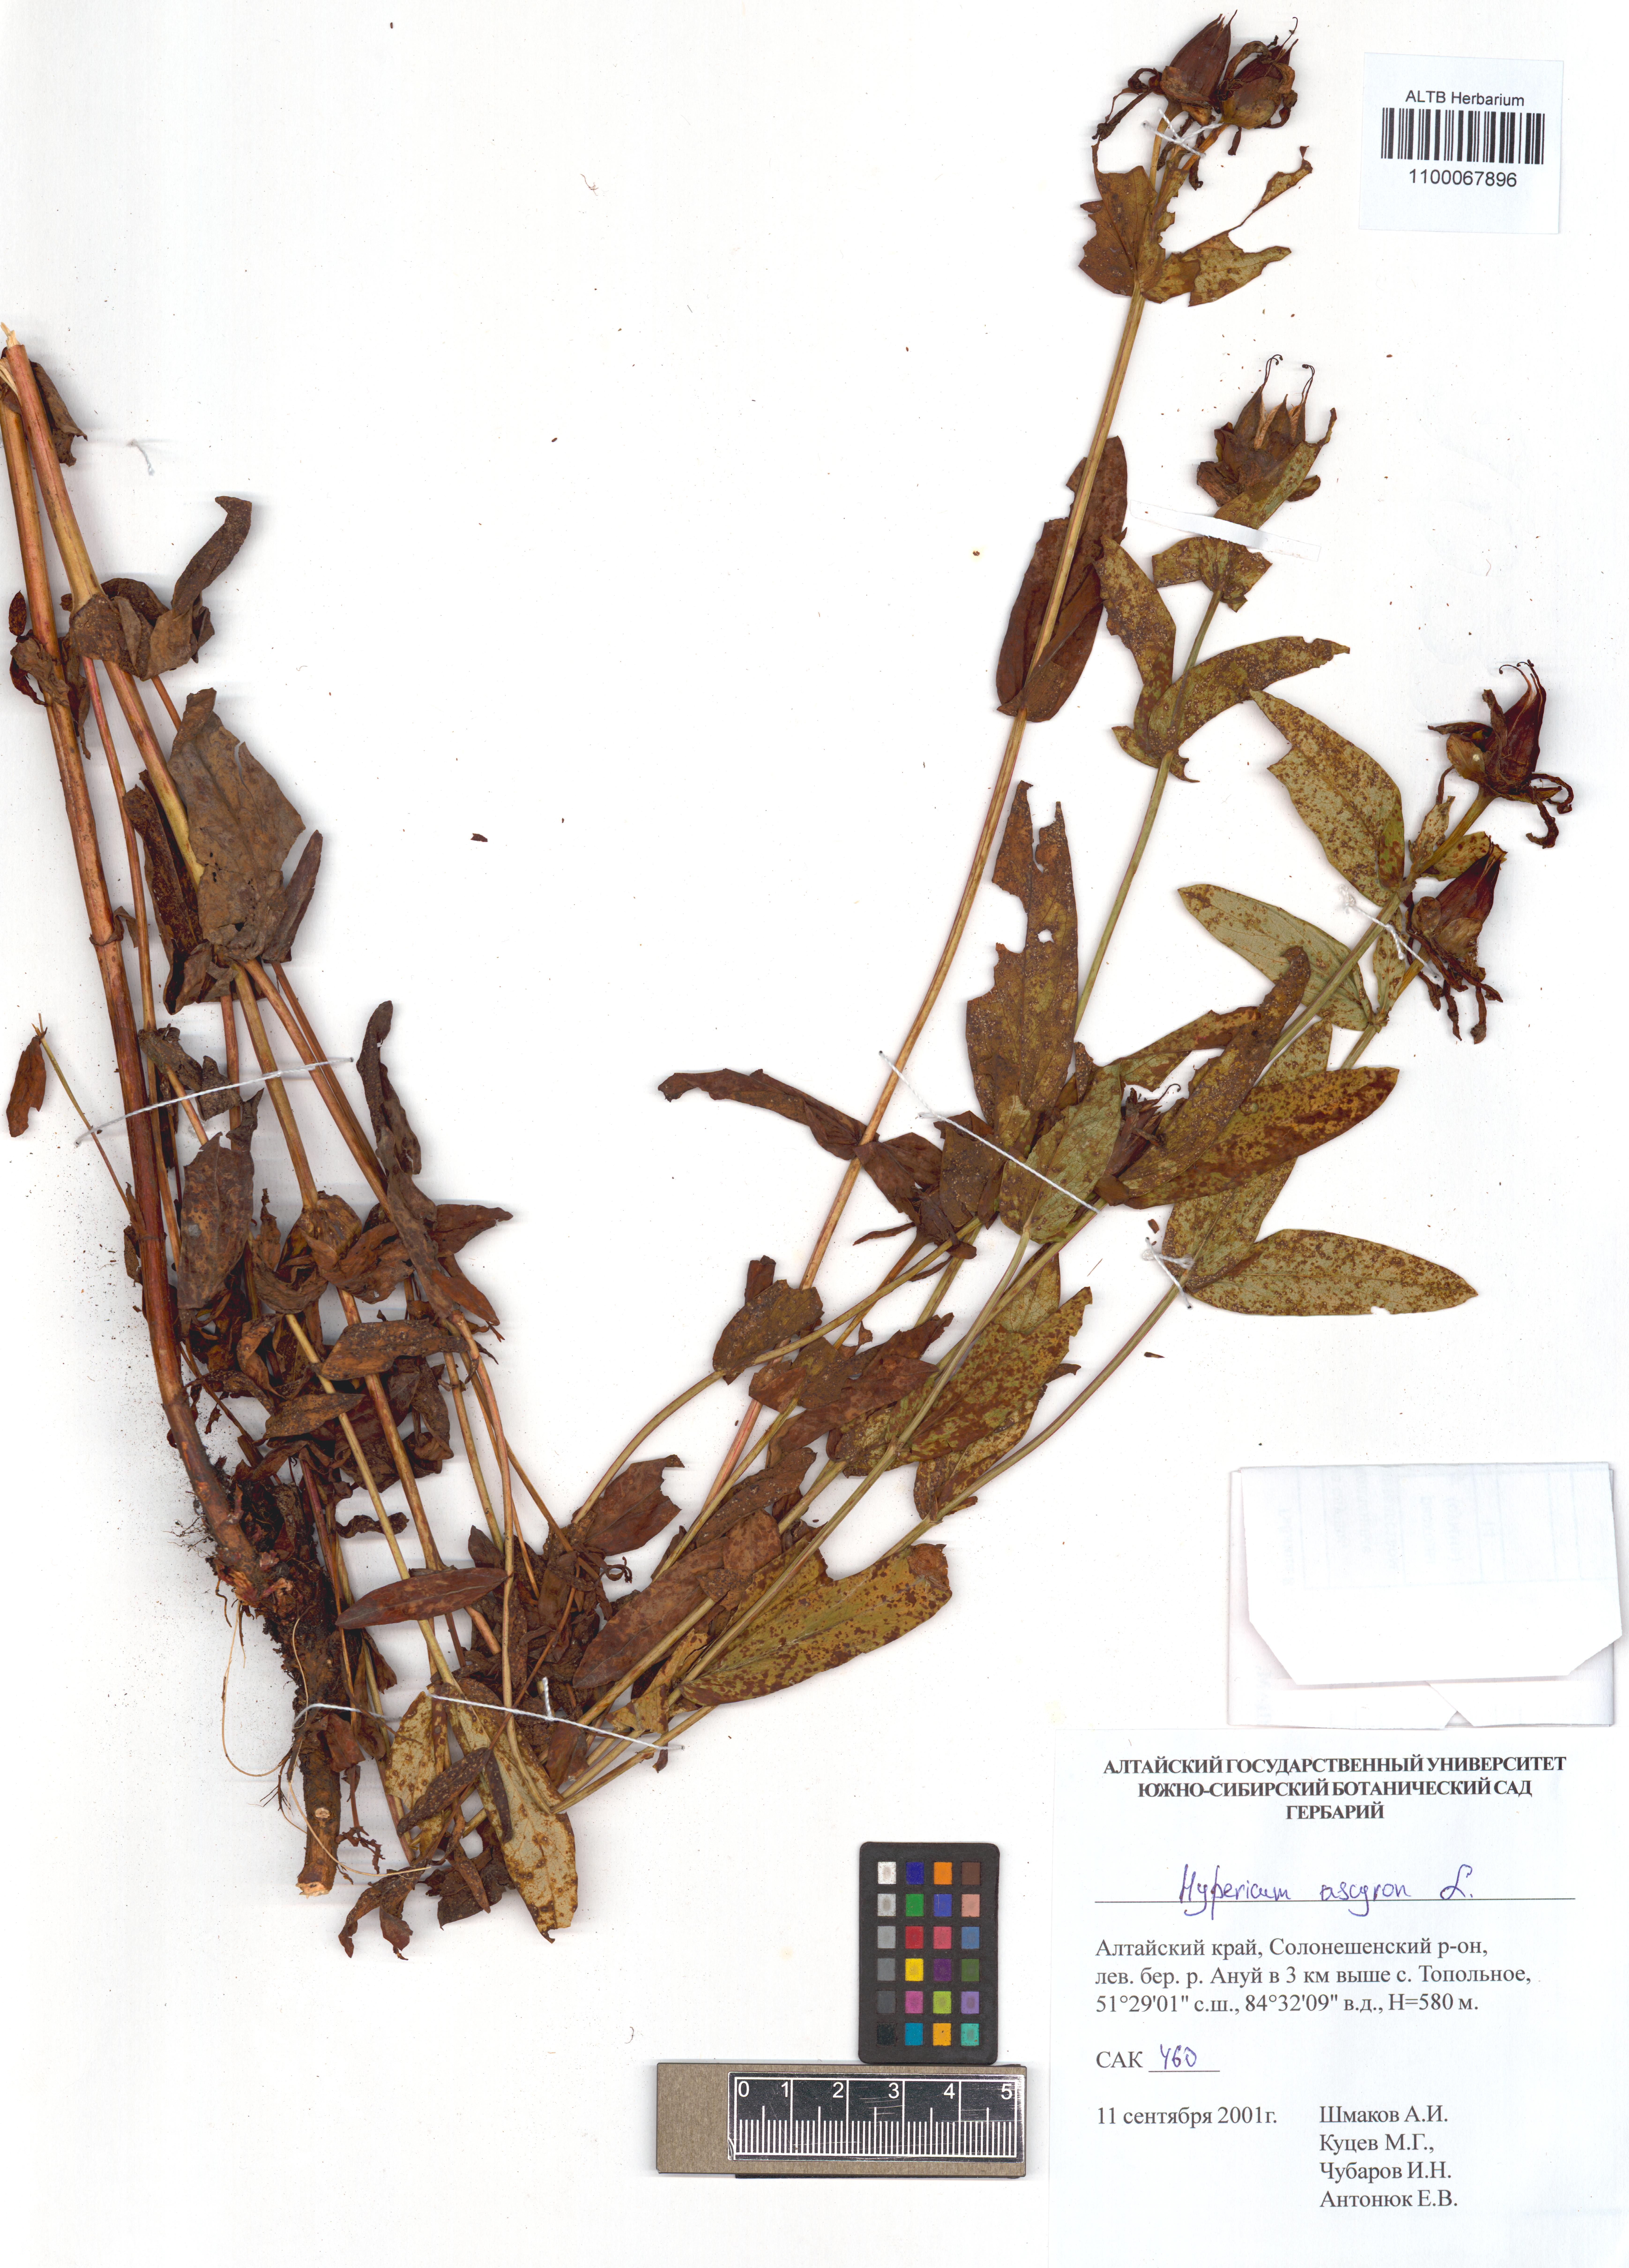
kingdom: Plantae
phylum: Tracheophyta
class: Magnoliopsida
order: Malpighiales
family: Hypericaceae
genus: Hypericum
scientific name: Hypericum ascyron
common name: Giant st. john's-wort
